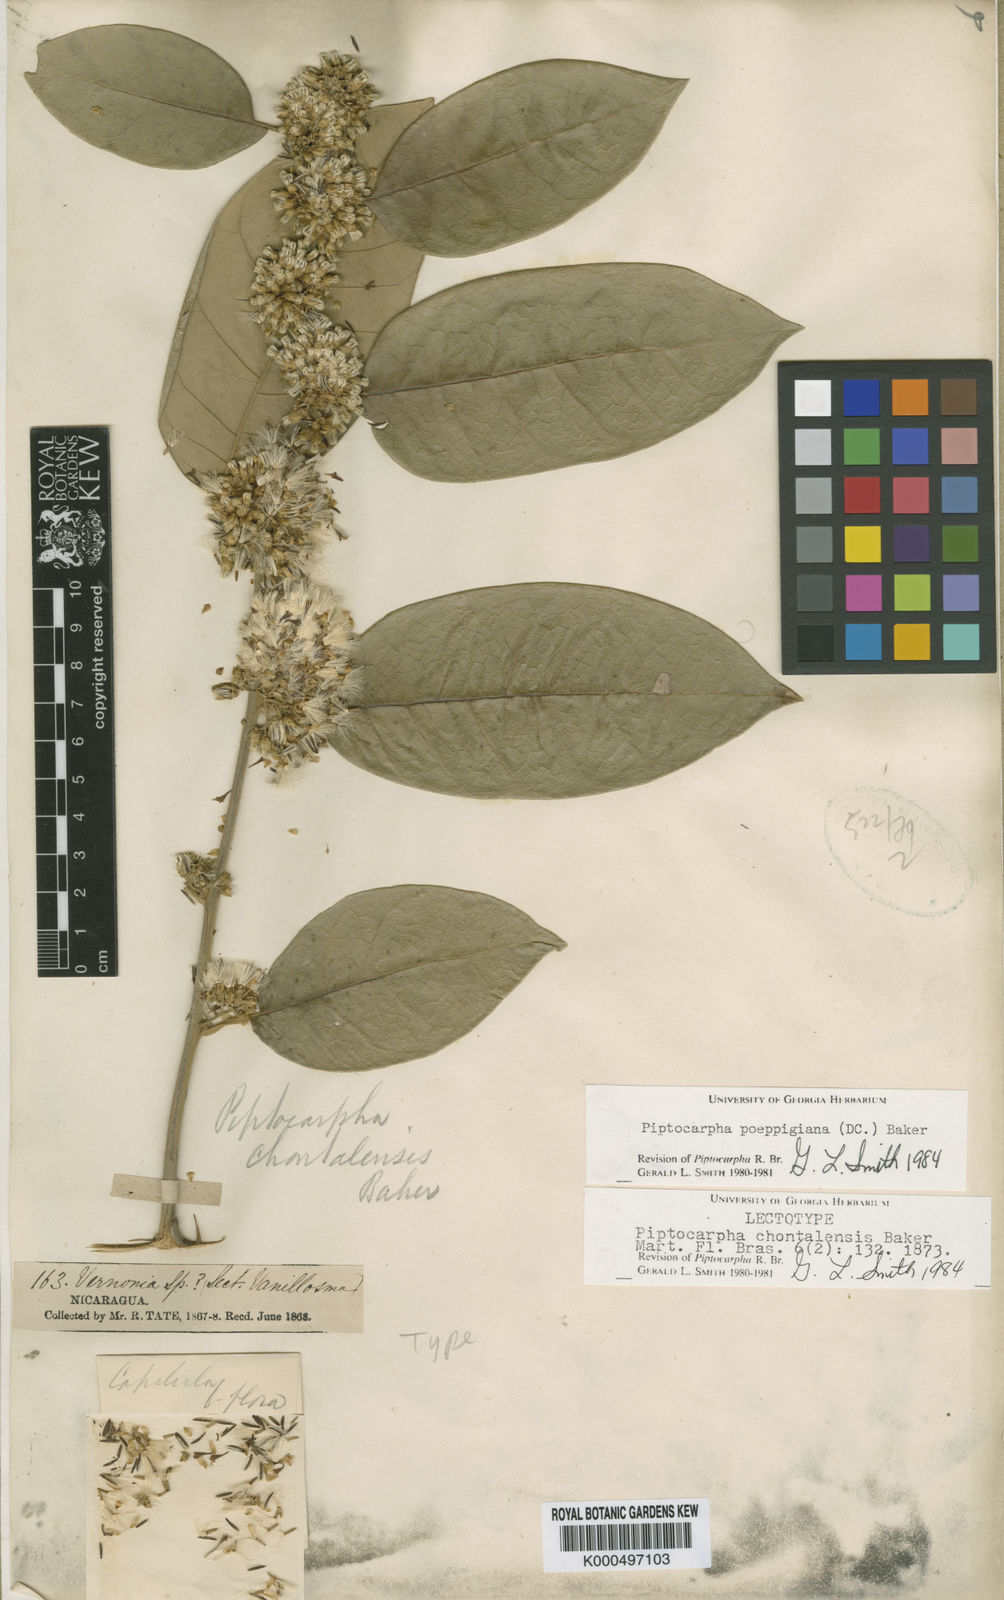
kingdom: Plantae
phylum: Tracheophyta
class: Magnoliopsida
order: Asterales
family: Asteraceae
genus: Piptocarpha
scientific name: Piptocarpha poeppigiana
